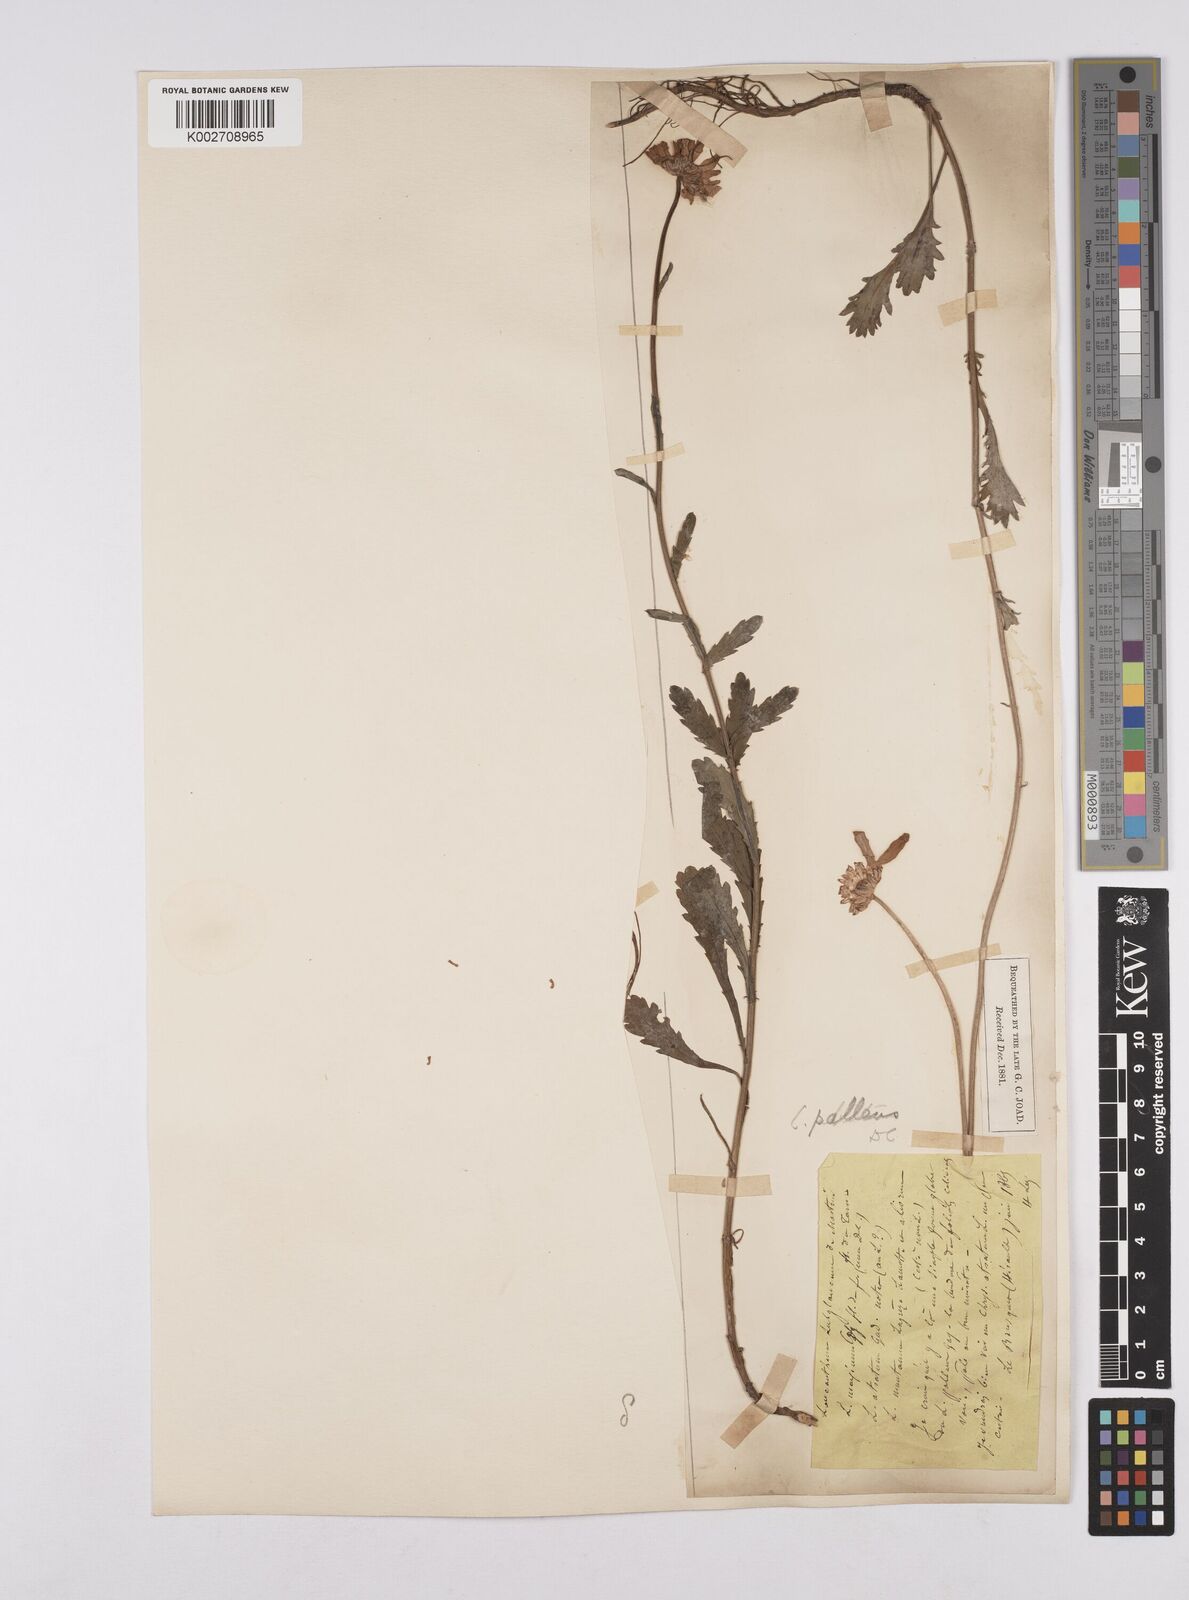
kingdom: Plantae
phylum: Tracheophyta
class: Magnoliopsida
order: Asterales
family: Asteraceae
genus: Leucanthemum
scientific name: Leucanthemum vulgare
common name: Oxeye daisy
